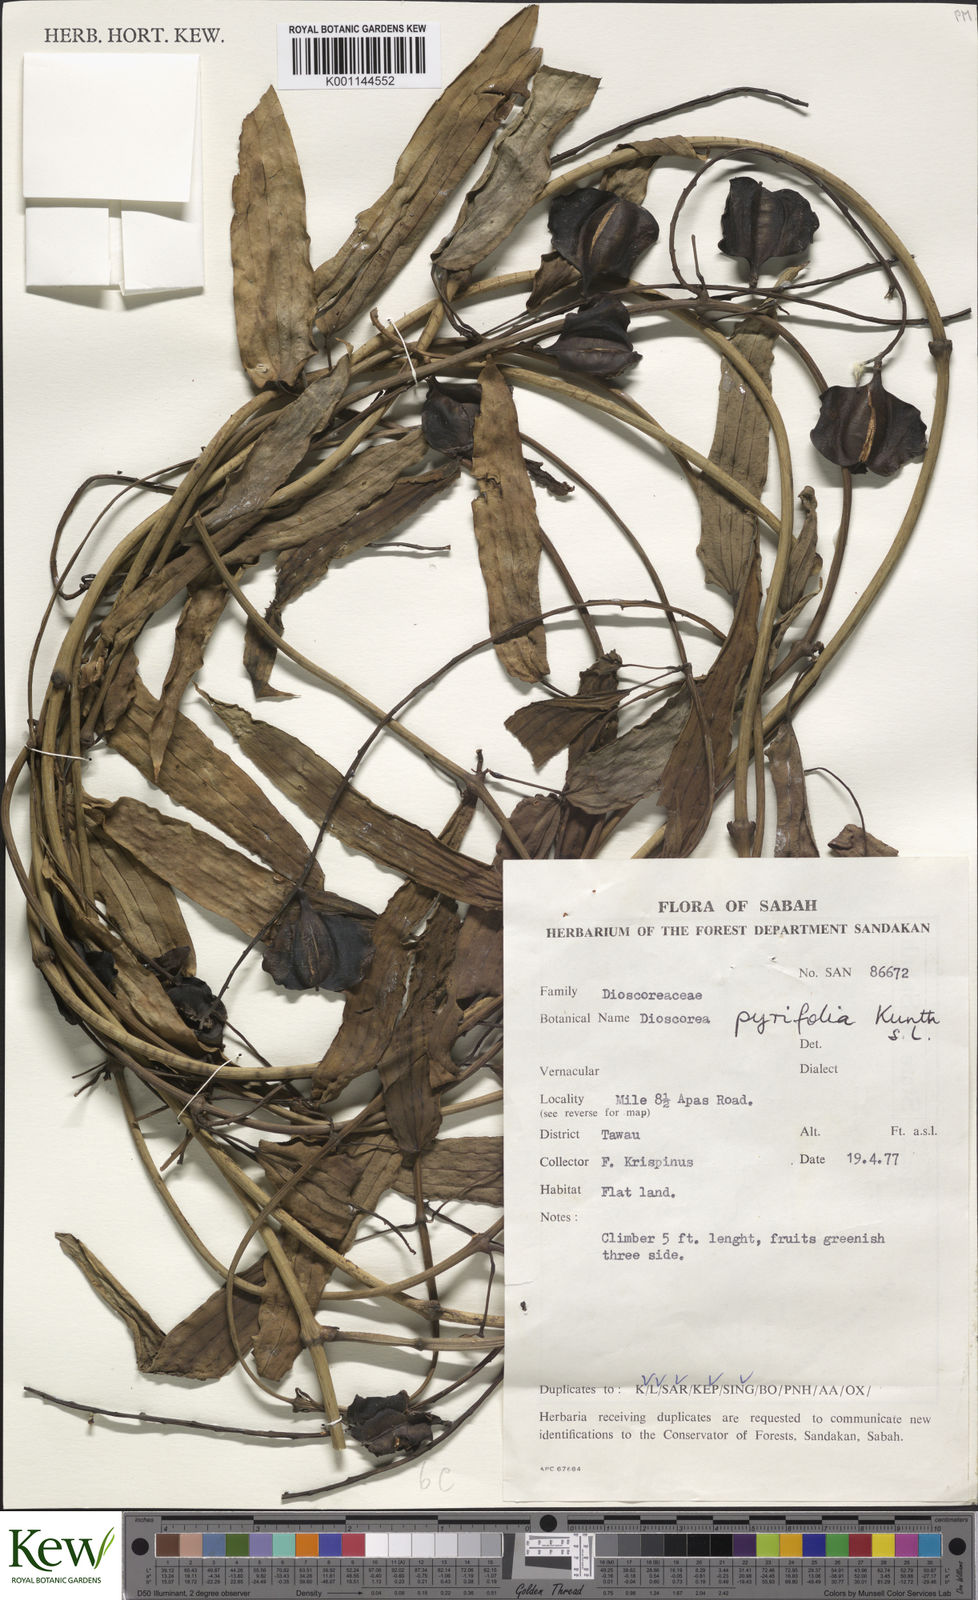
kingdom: Plantae
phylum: Tracheophyta
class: Liliopsida
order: Dioscoreales
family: Dioscoreaceae
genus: Dioscorea
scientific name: Dioscorea pyrifolia
